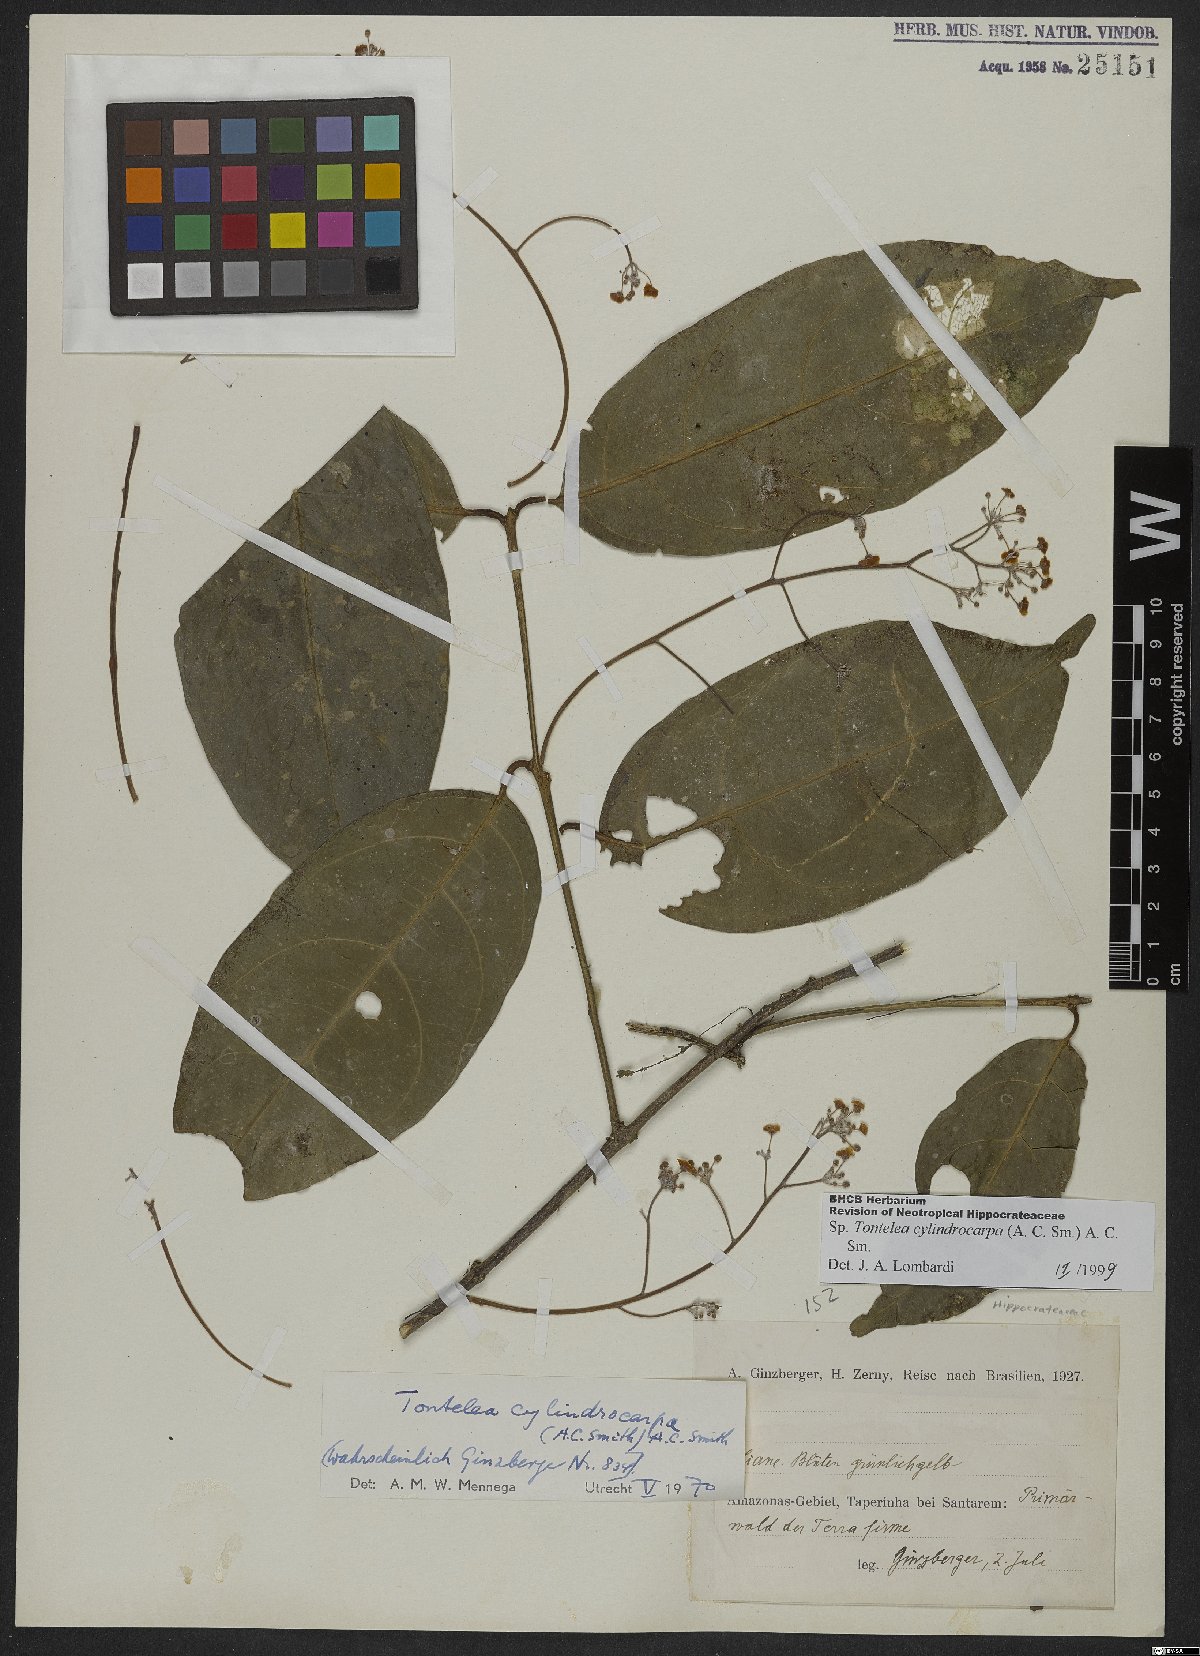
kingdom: Plantae
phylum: Tracheophyta
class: Magnoliopsida
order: Celastrales
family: Celastraceae
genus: Tontelea
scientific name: Tontelea cylindrocarpa
